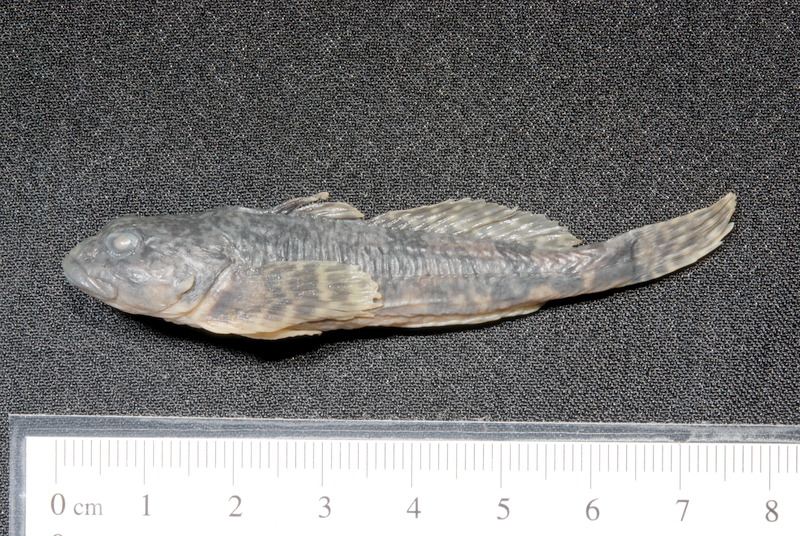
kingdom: Animalia
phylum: Chordata
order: Scorpaeniformes
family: Cottidae
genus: Cottus
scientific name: Cottus gobio
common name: Bullhead
